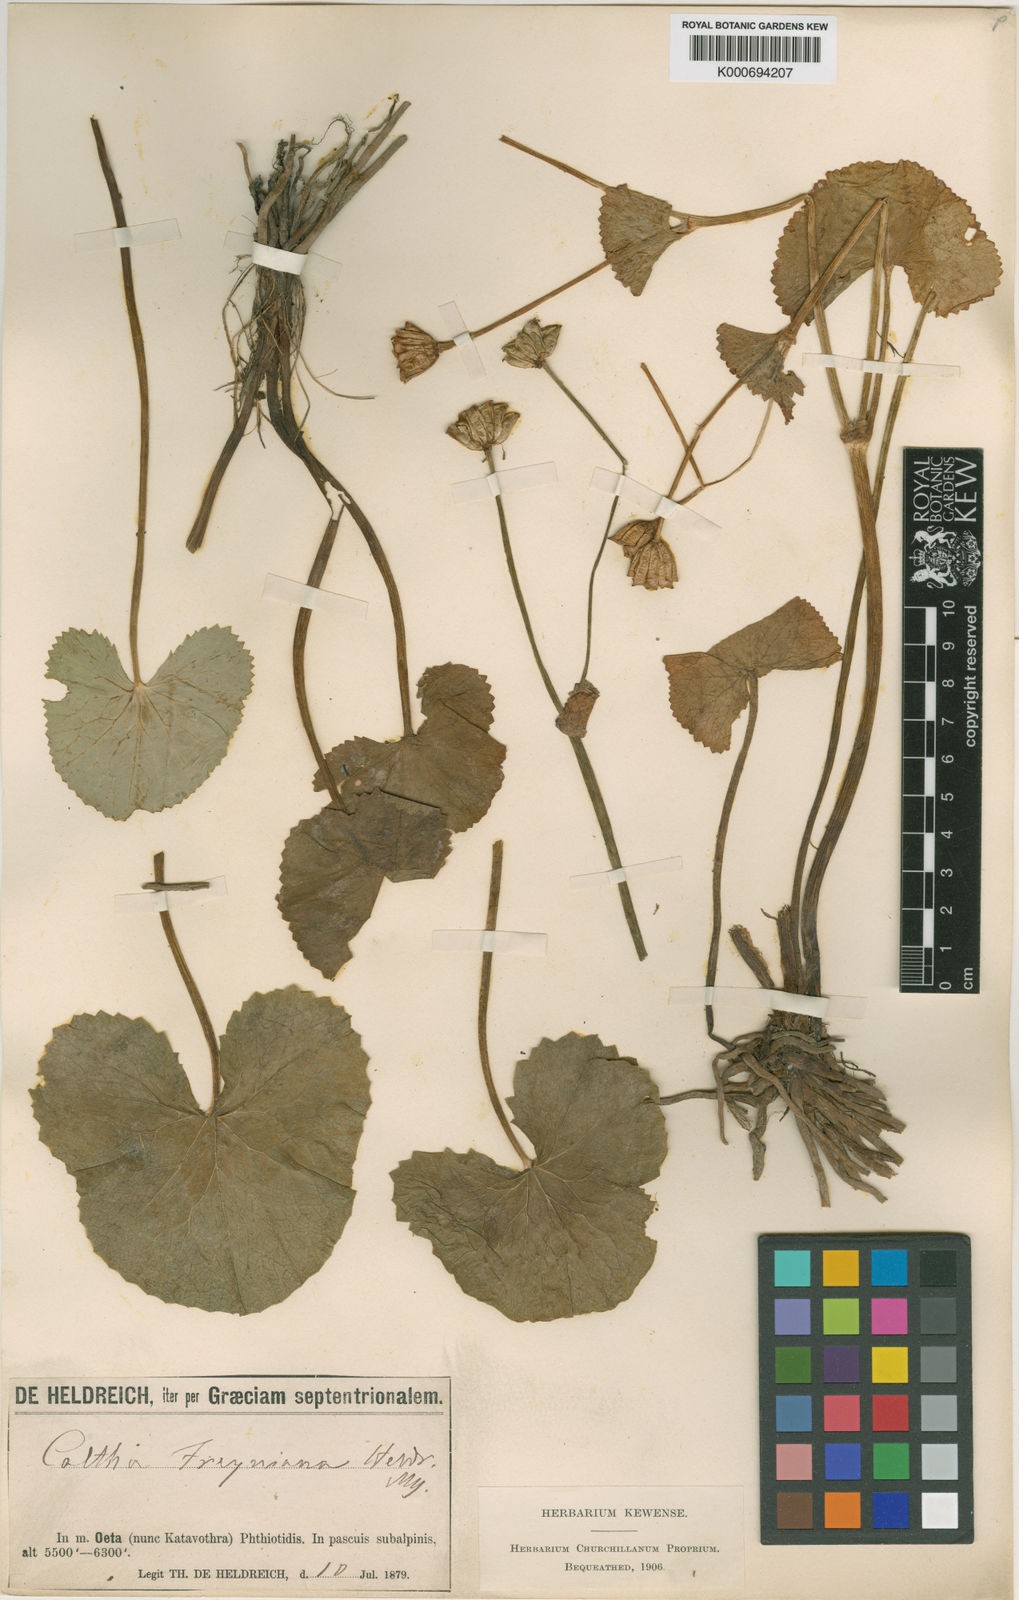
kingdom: Plantae
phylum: Tracheophyta
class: Magnoliopsida
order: Ranunculales
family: Ranunculaceae
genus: Caltha
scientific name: Caltha palustris
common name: Marsh marigold
